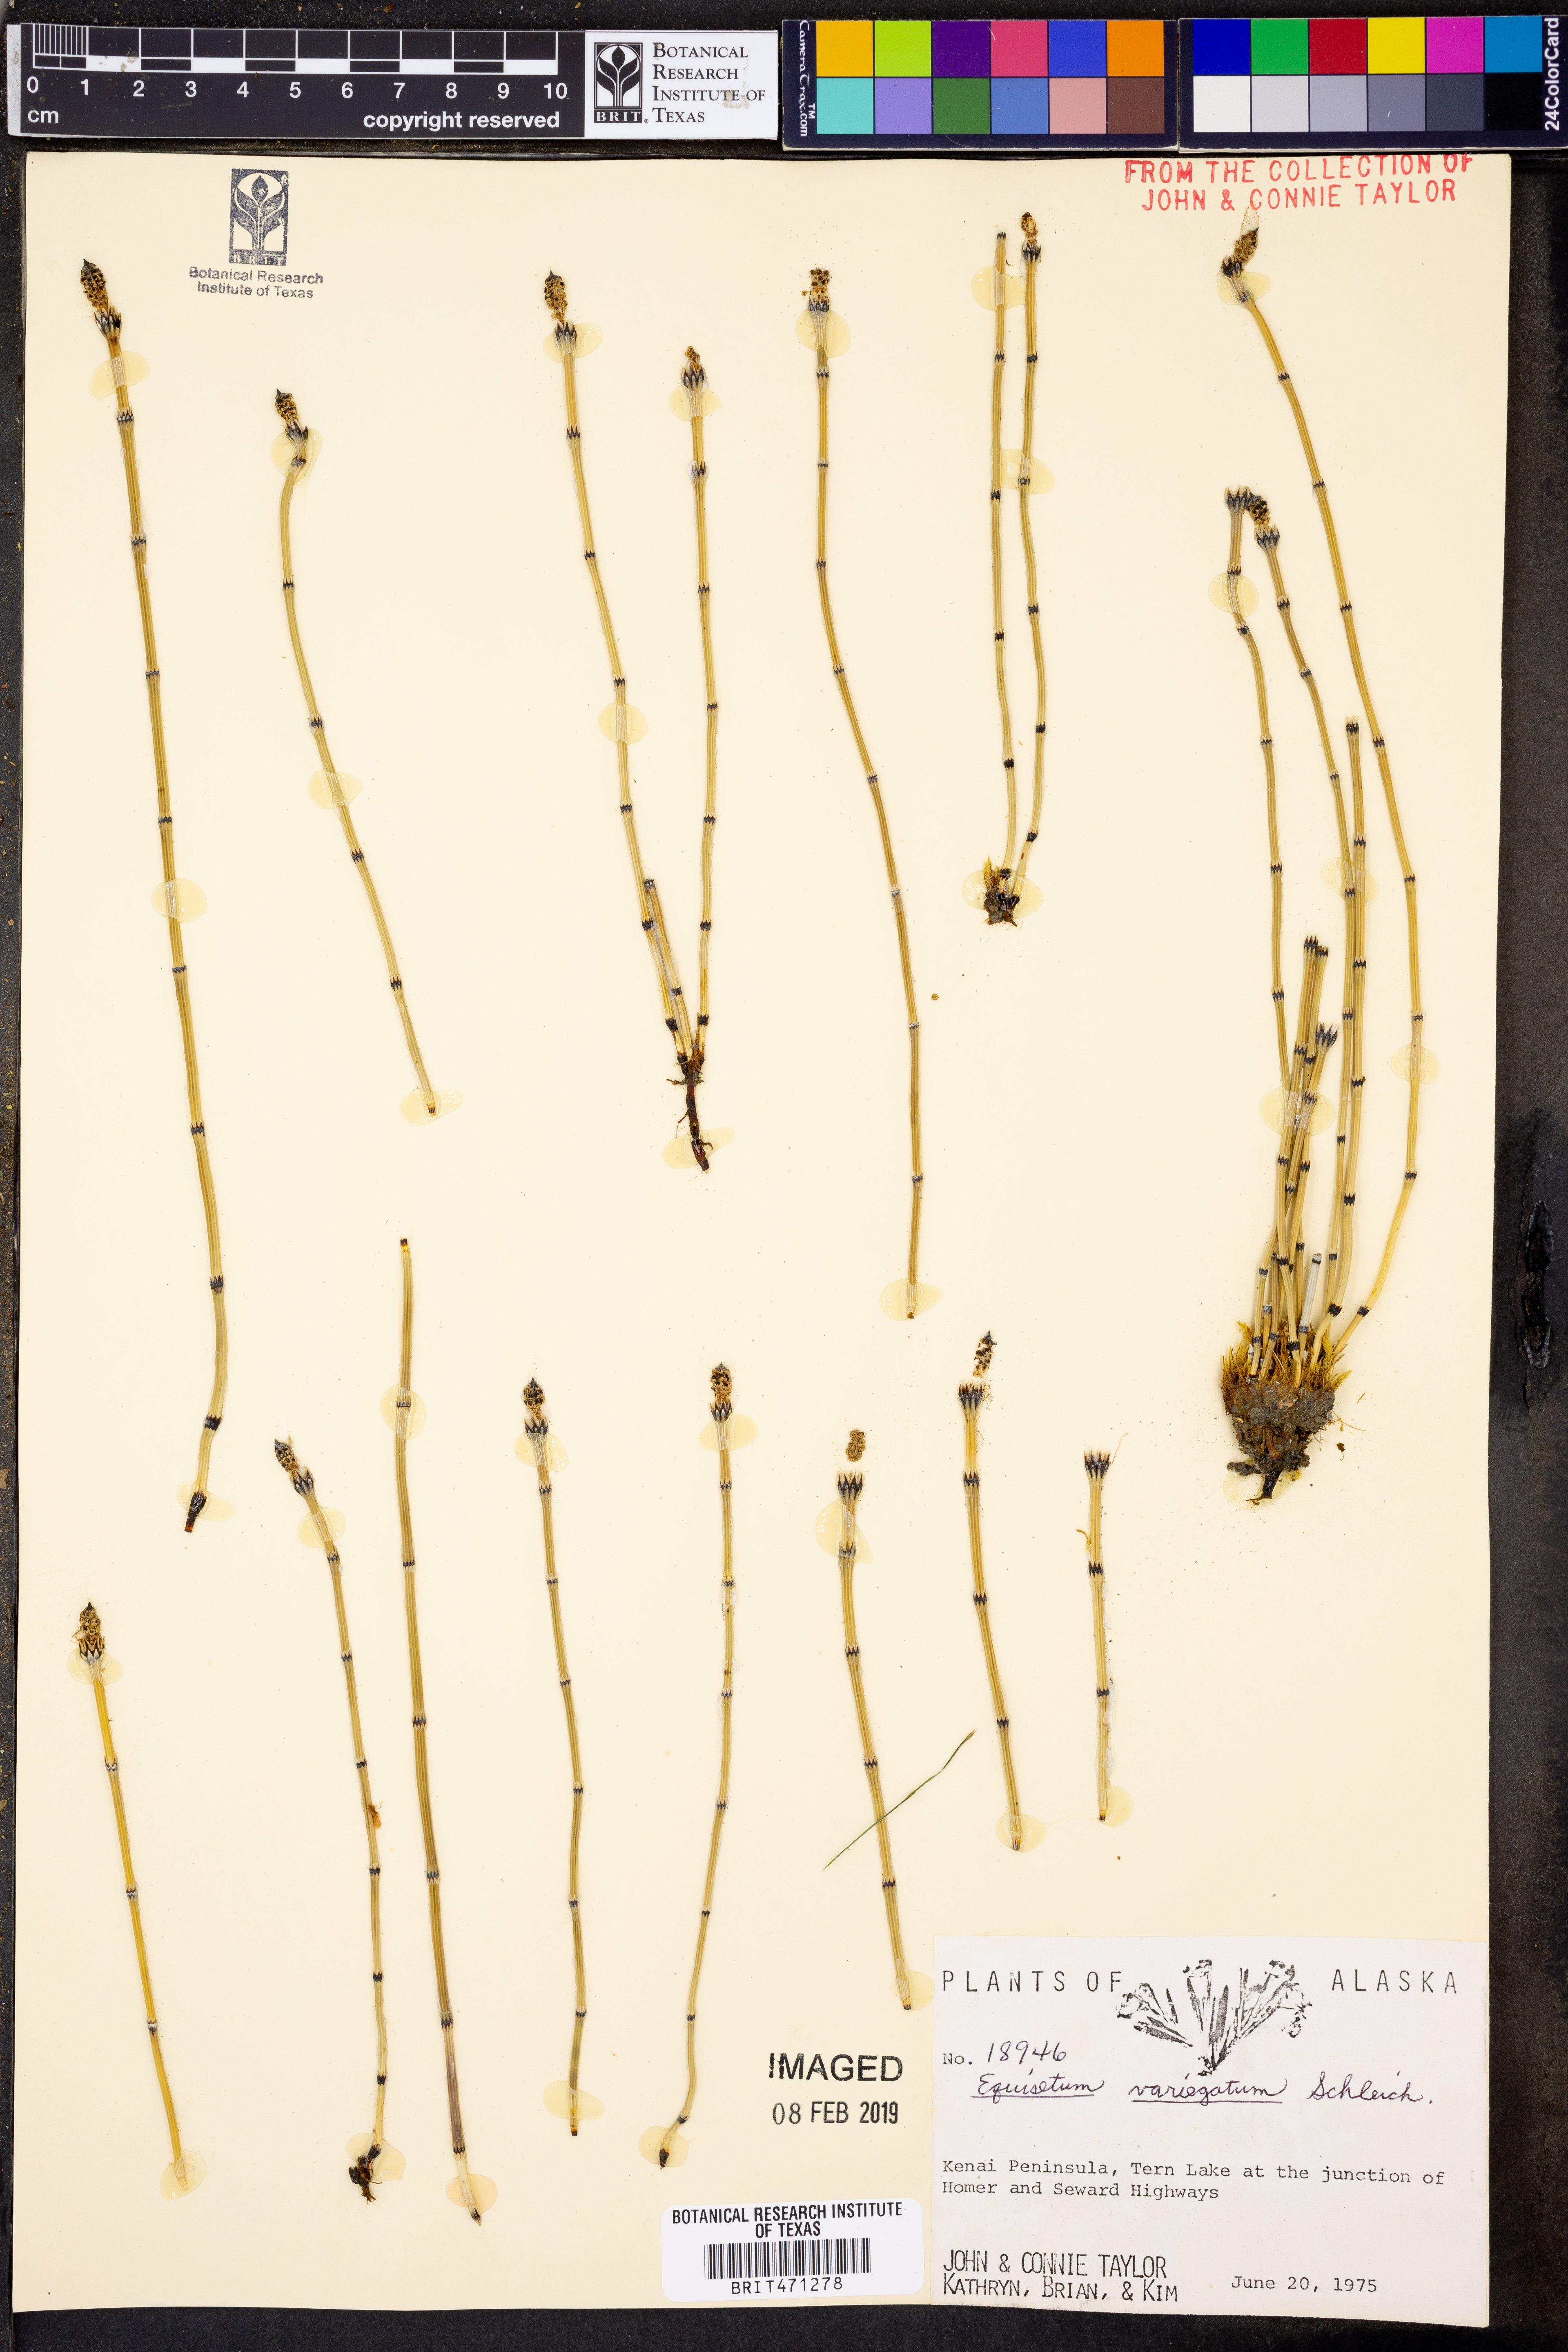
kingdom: Plantae
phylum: Tracheophyta
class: Polypodiopsida
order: Equisetales
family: Equisetaceae
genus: Equisetum
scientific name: Equisetum variegatum
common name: Variegated horsetail
